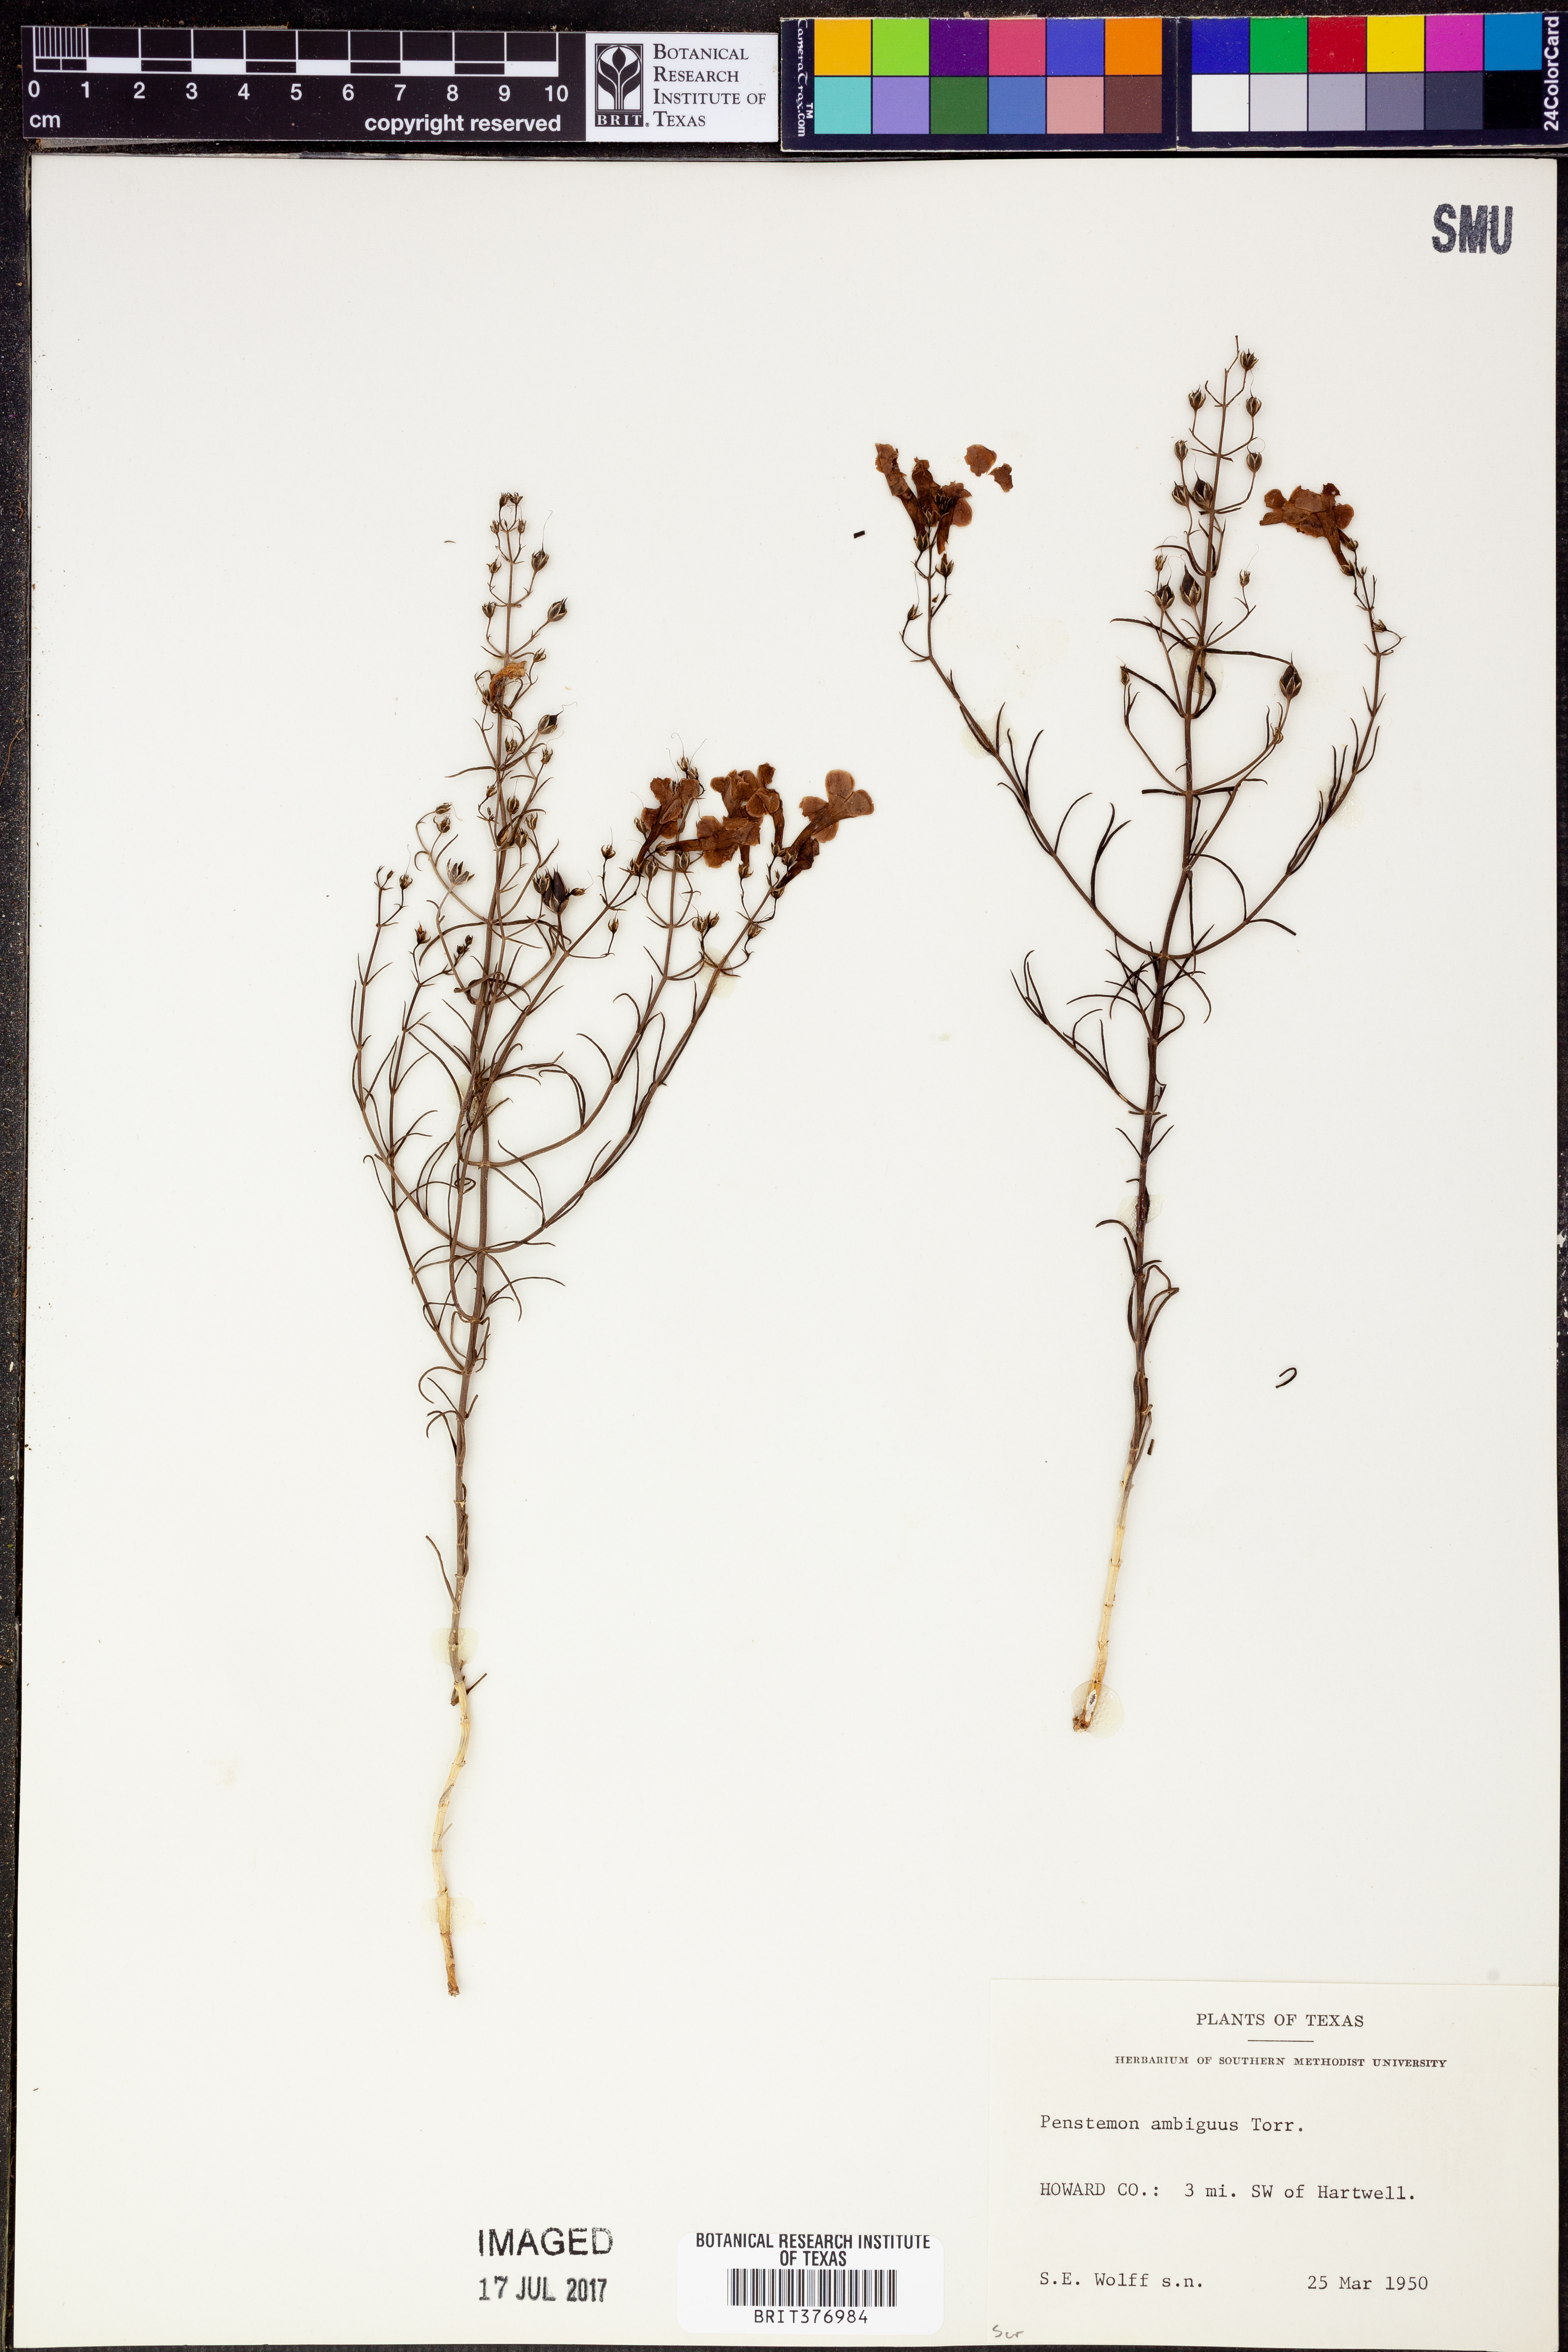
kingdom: Plantae
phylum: Tracheophyta
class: Magnoliopsida
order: Lamiales
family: Plantaginaceae
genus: Penstemon
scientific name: Penstemon ambiguus
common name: Bush penstemon
